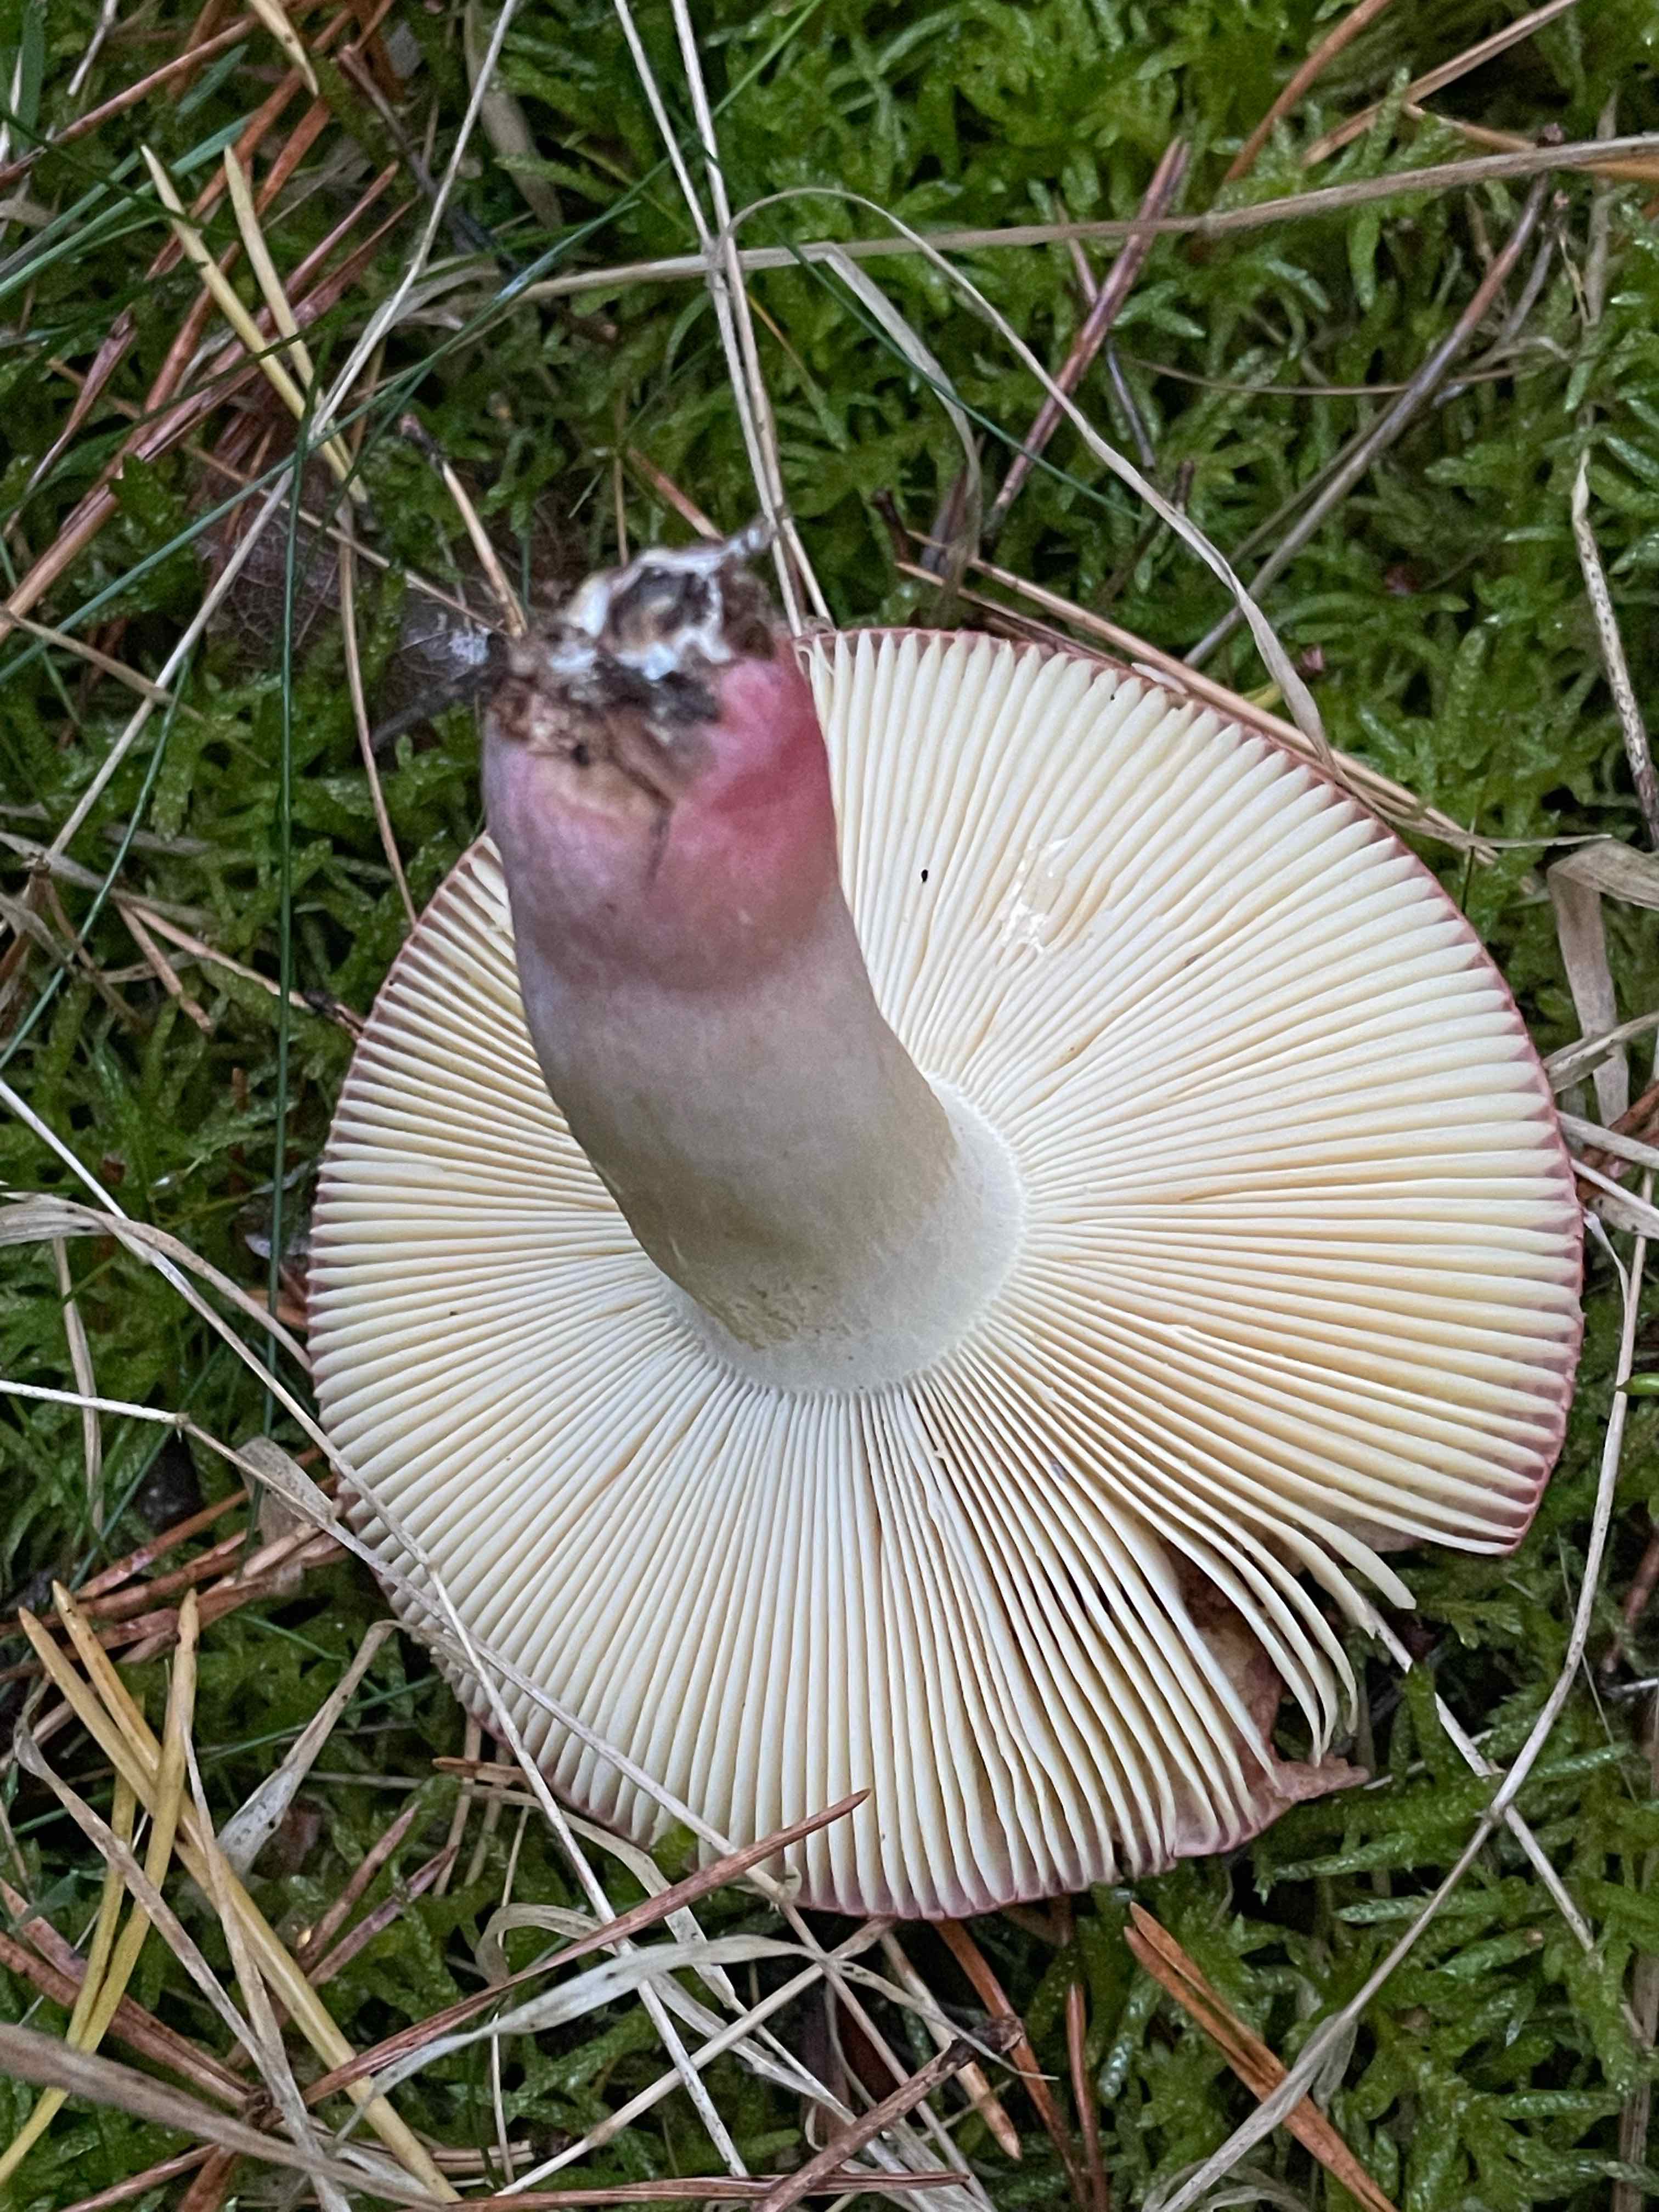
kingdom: Fungi
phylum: Basidiomycota
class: Agaricomycetes
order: Russulales
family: Russulaceae
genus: Russula
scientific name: Russula xerampelina
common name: hummer-skørhat
